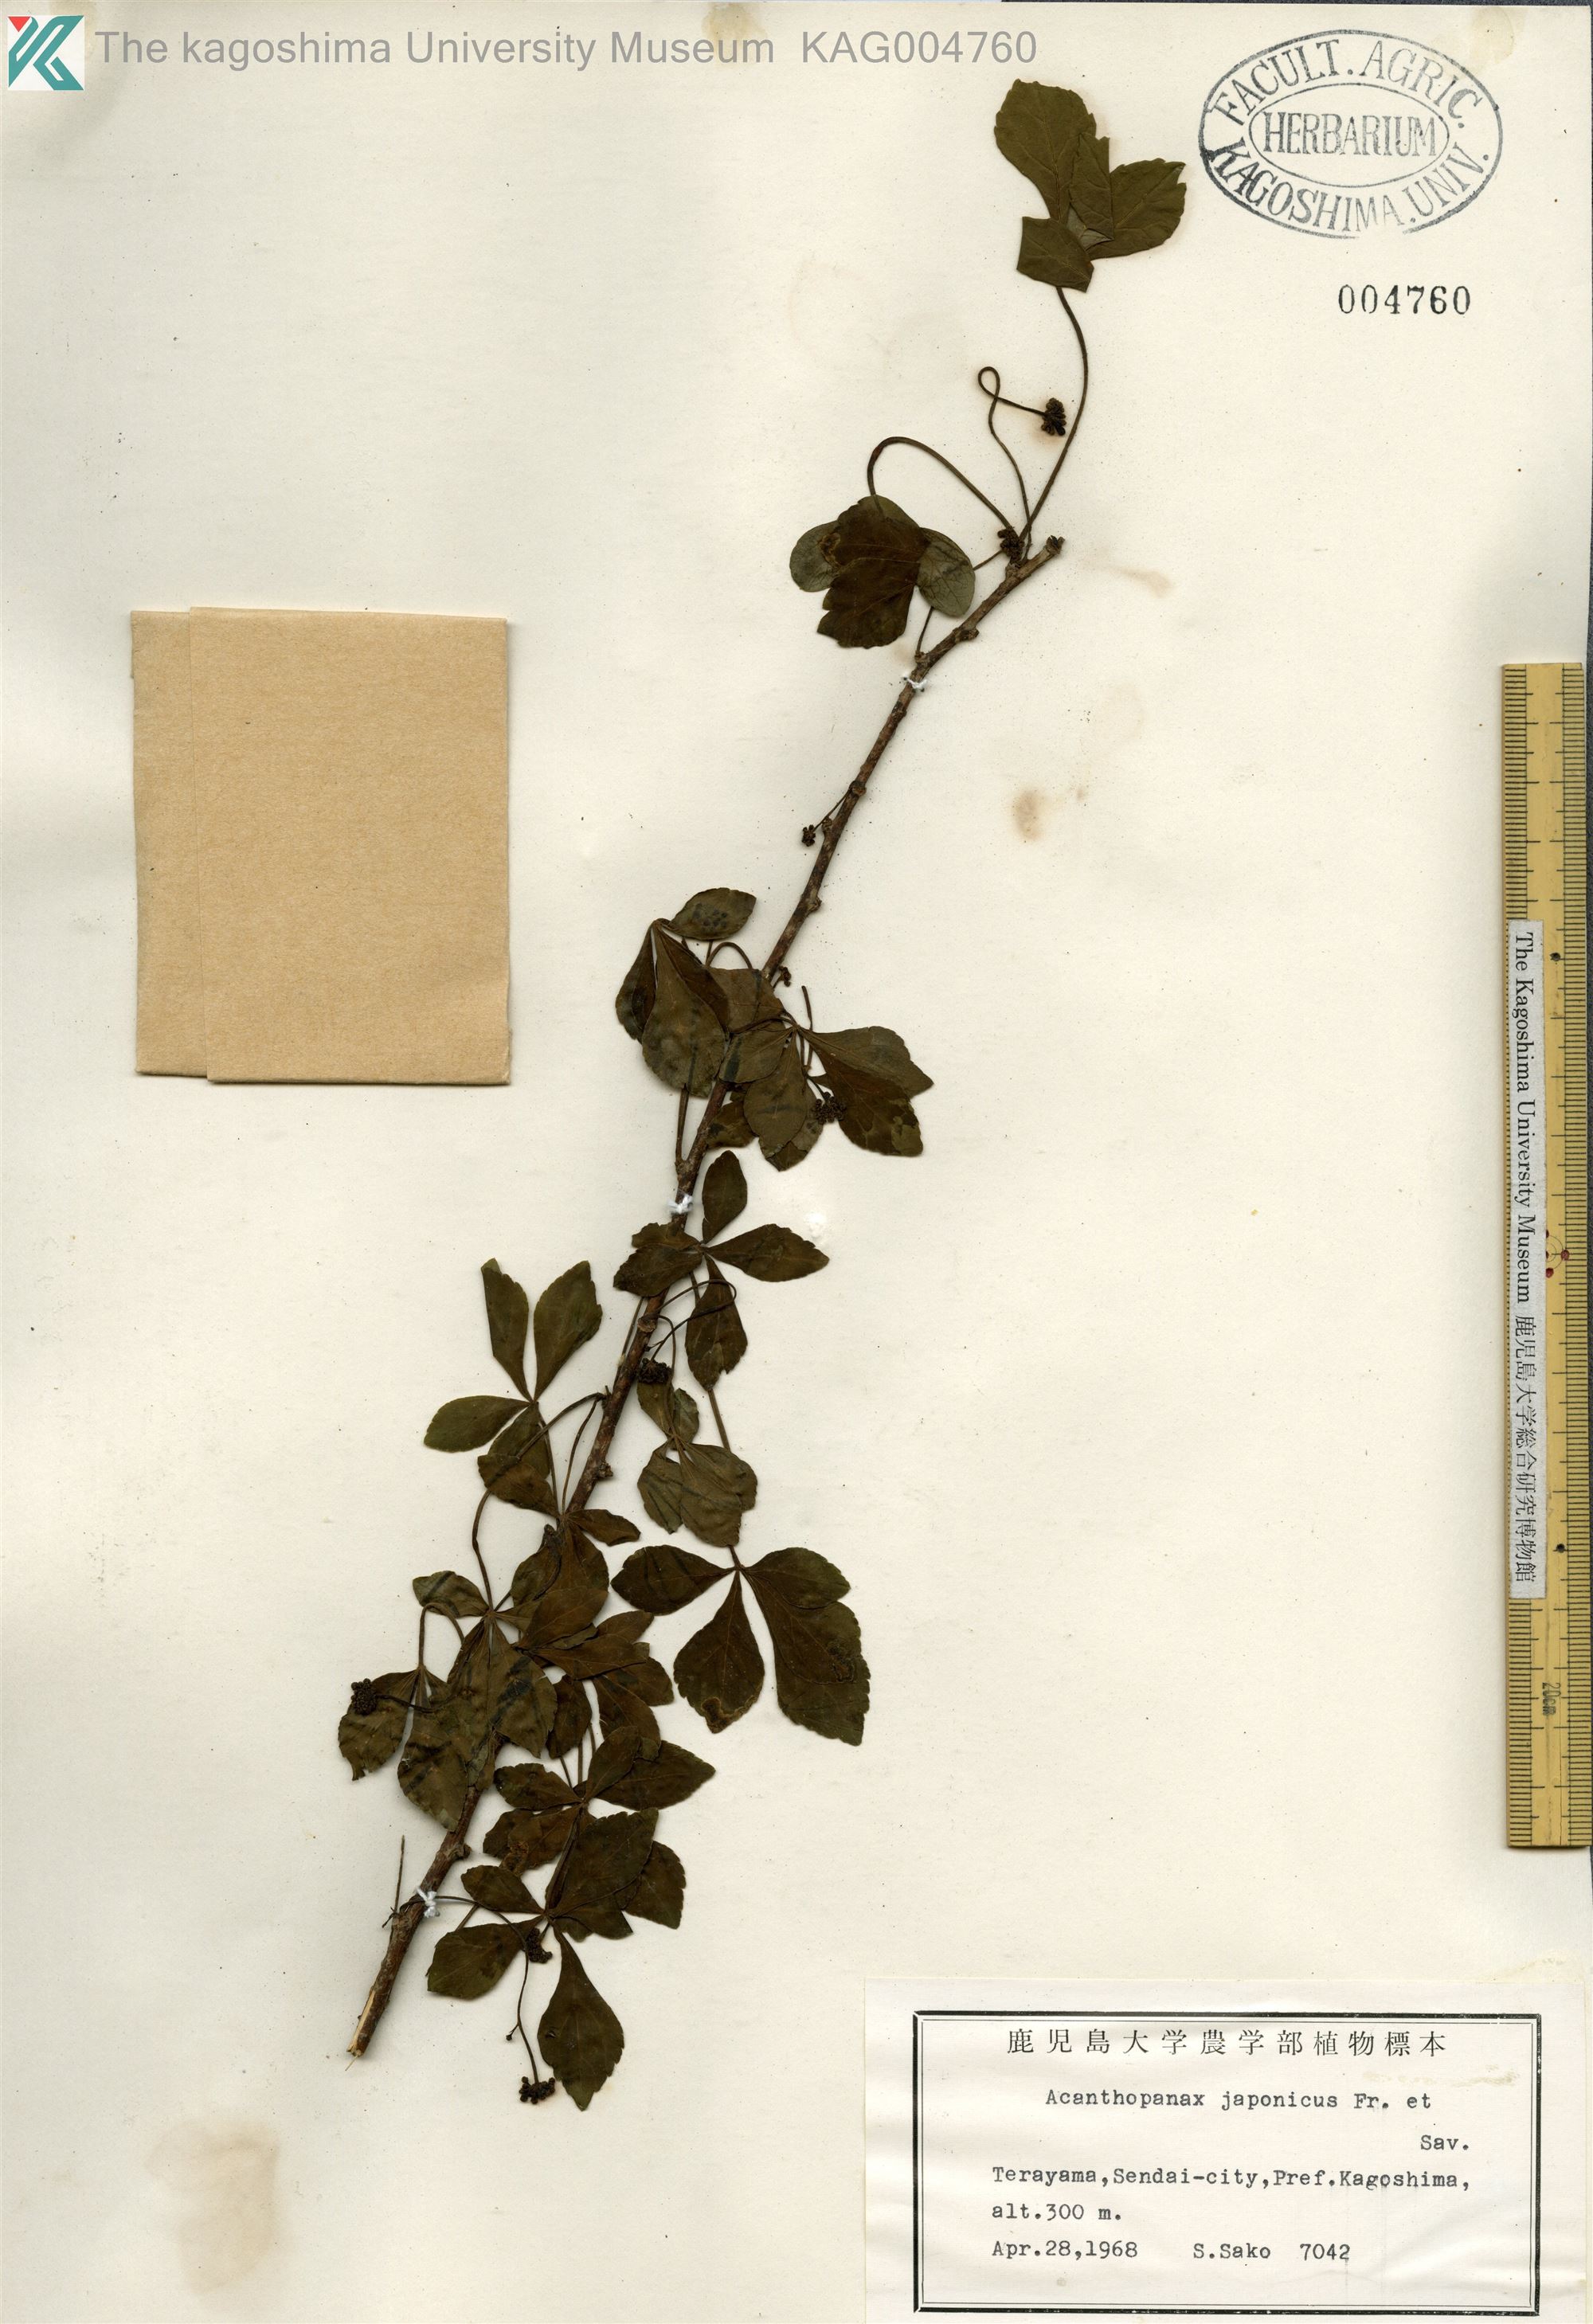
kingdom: Plantae
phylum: Tracheophyta
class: Magnoliopsida
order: Apiales
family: Araliaceae
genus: Eleutherococcus
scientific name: Eleutherococcus japonicus
